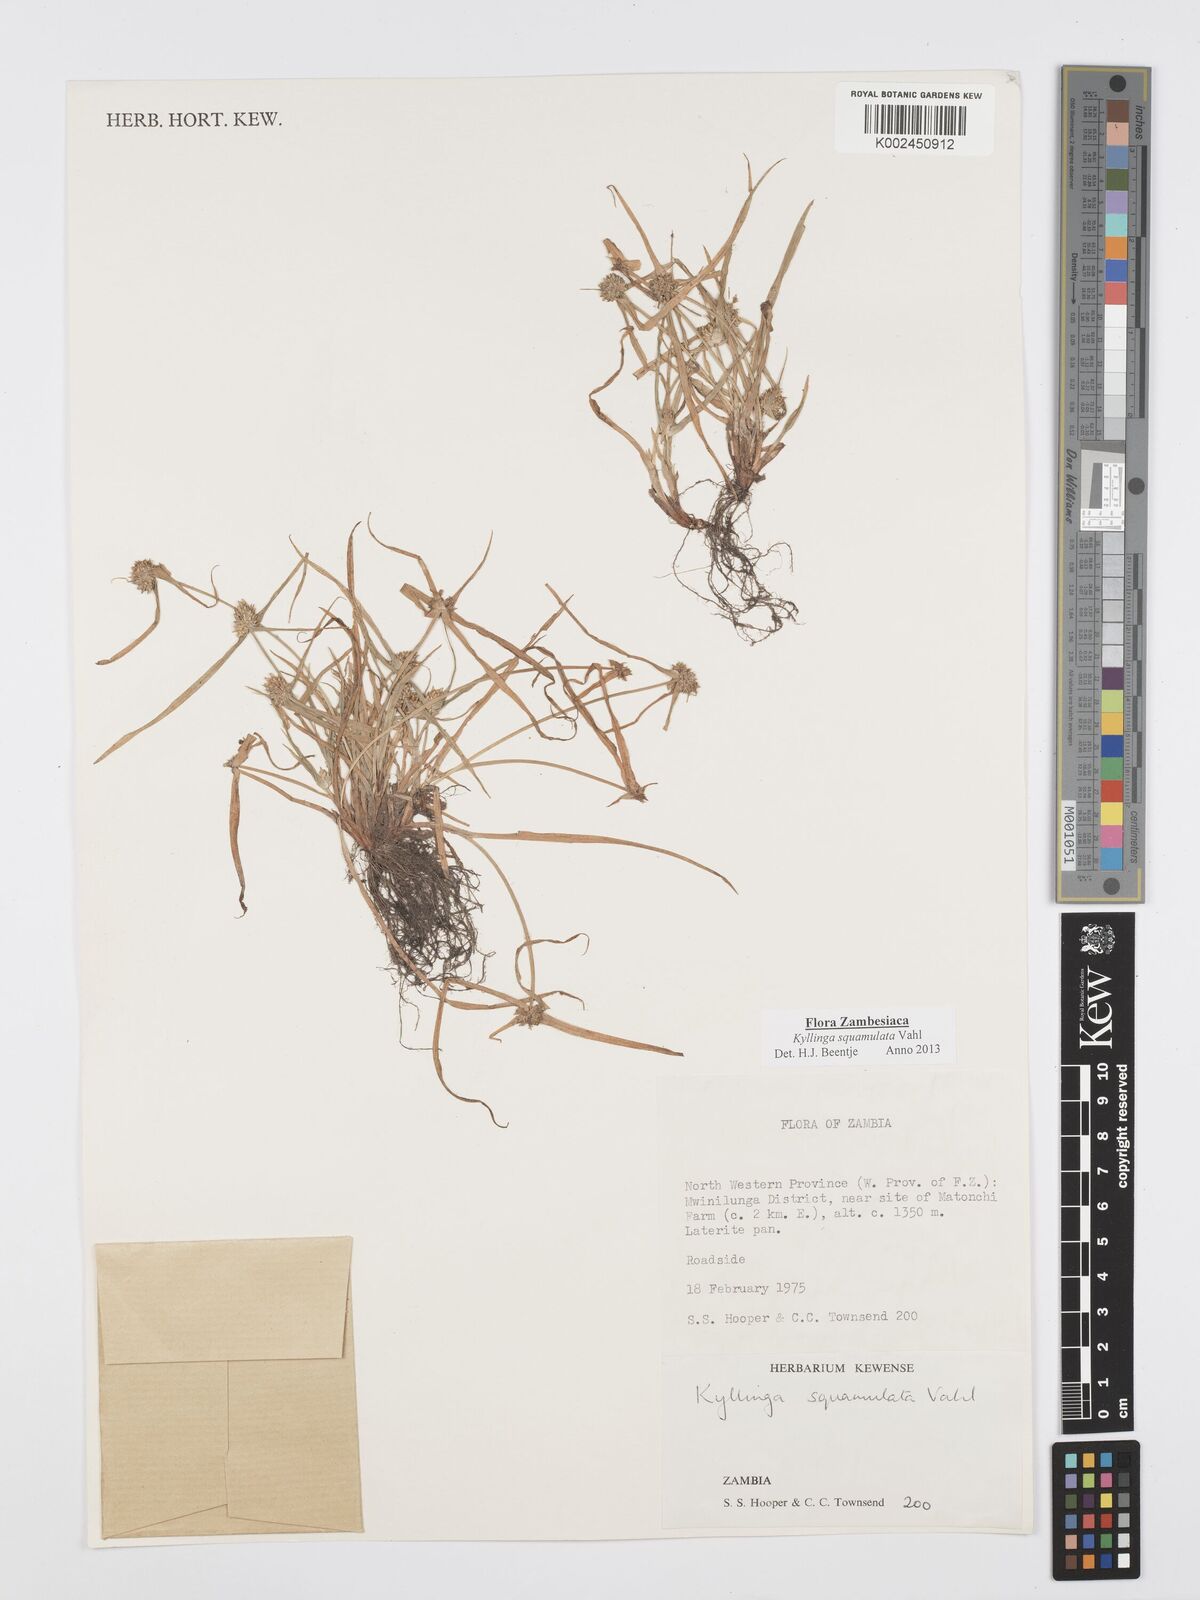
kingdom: Plantae
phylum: Tracheophyta
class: Liliopsida
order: Poales
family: Cyperaceae
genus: Cyperus
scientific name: Cyperus distans
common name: Slender cyperus
